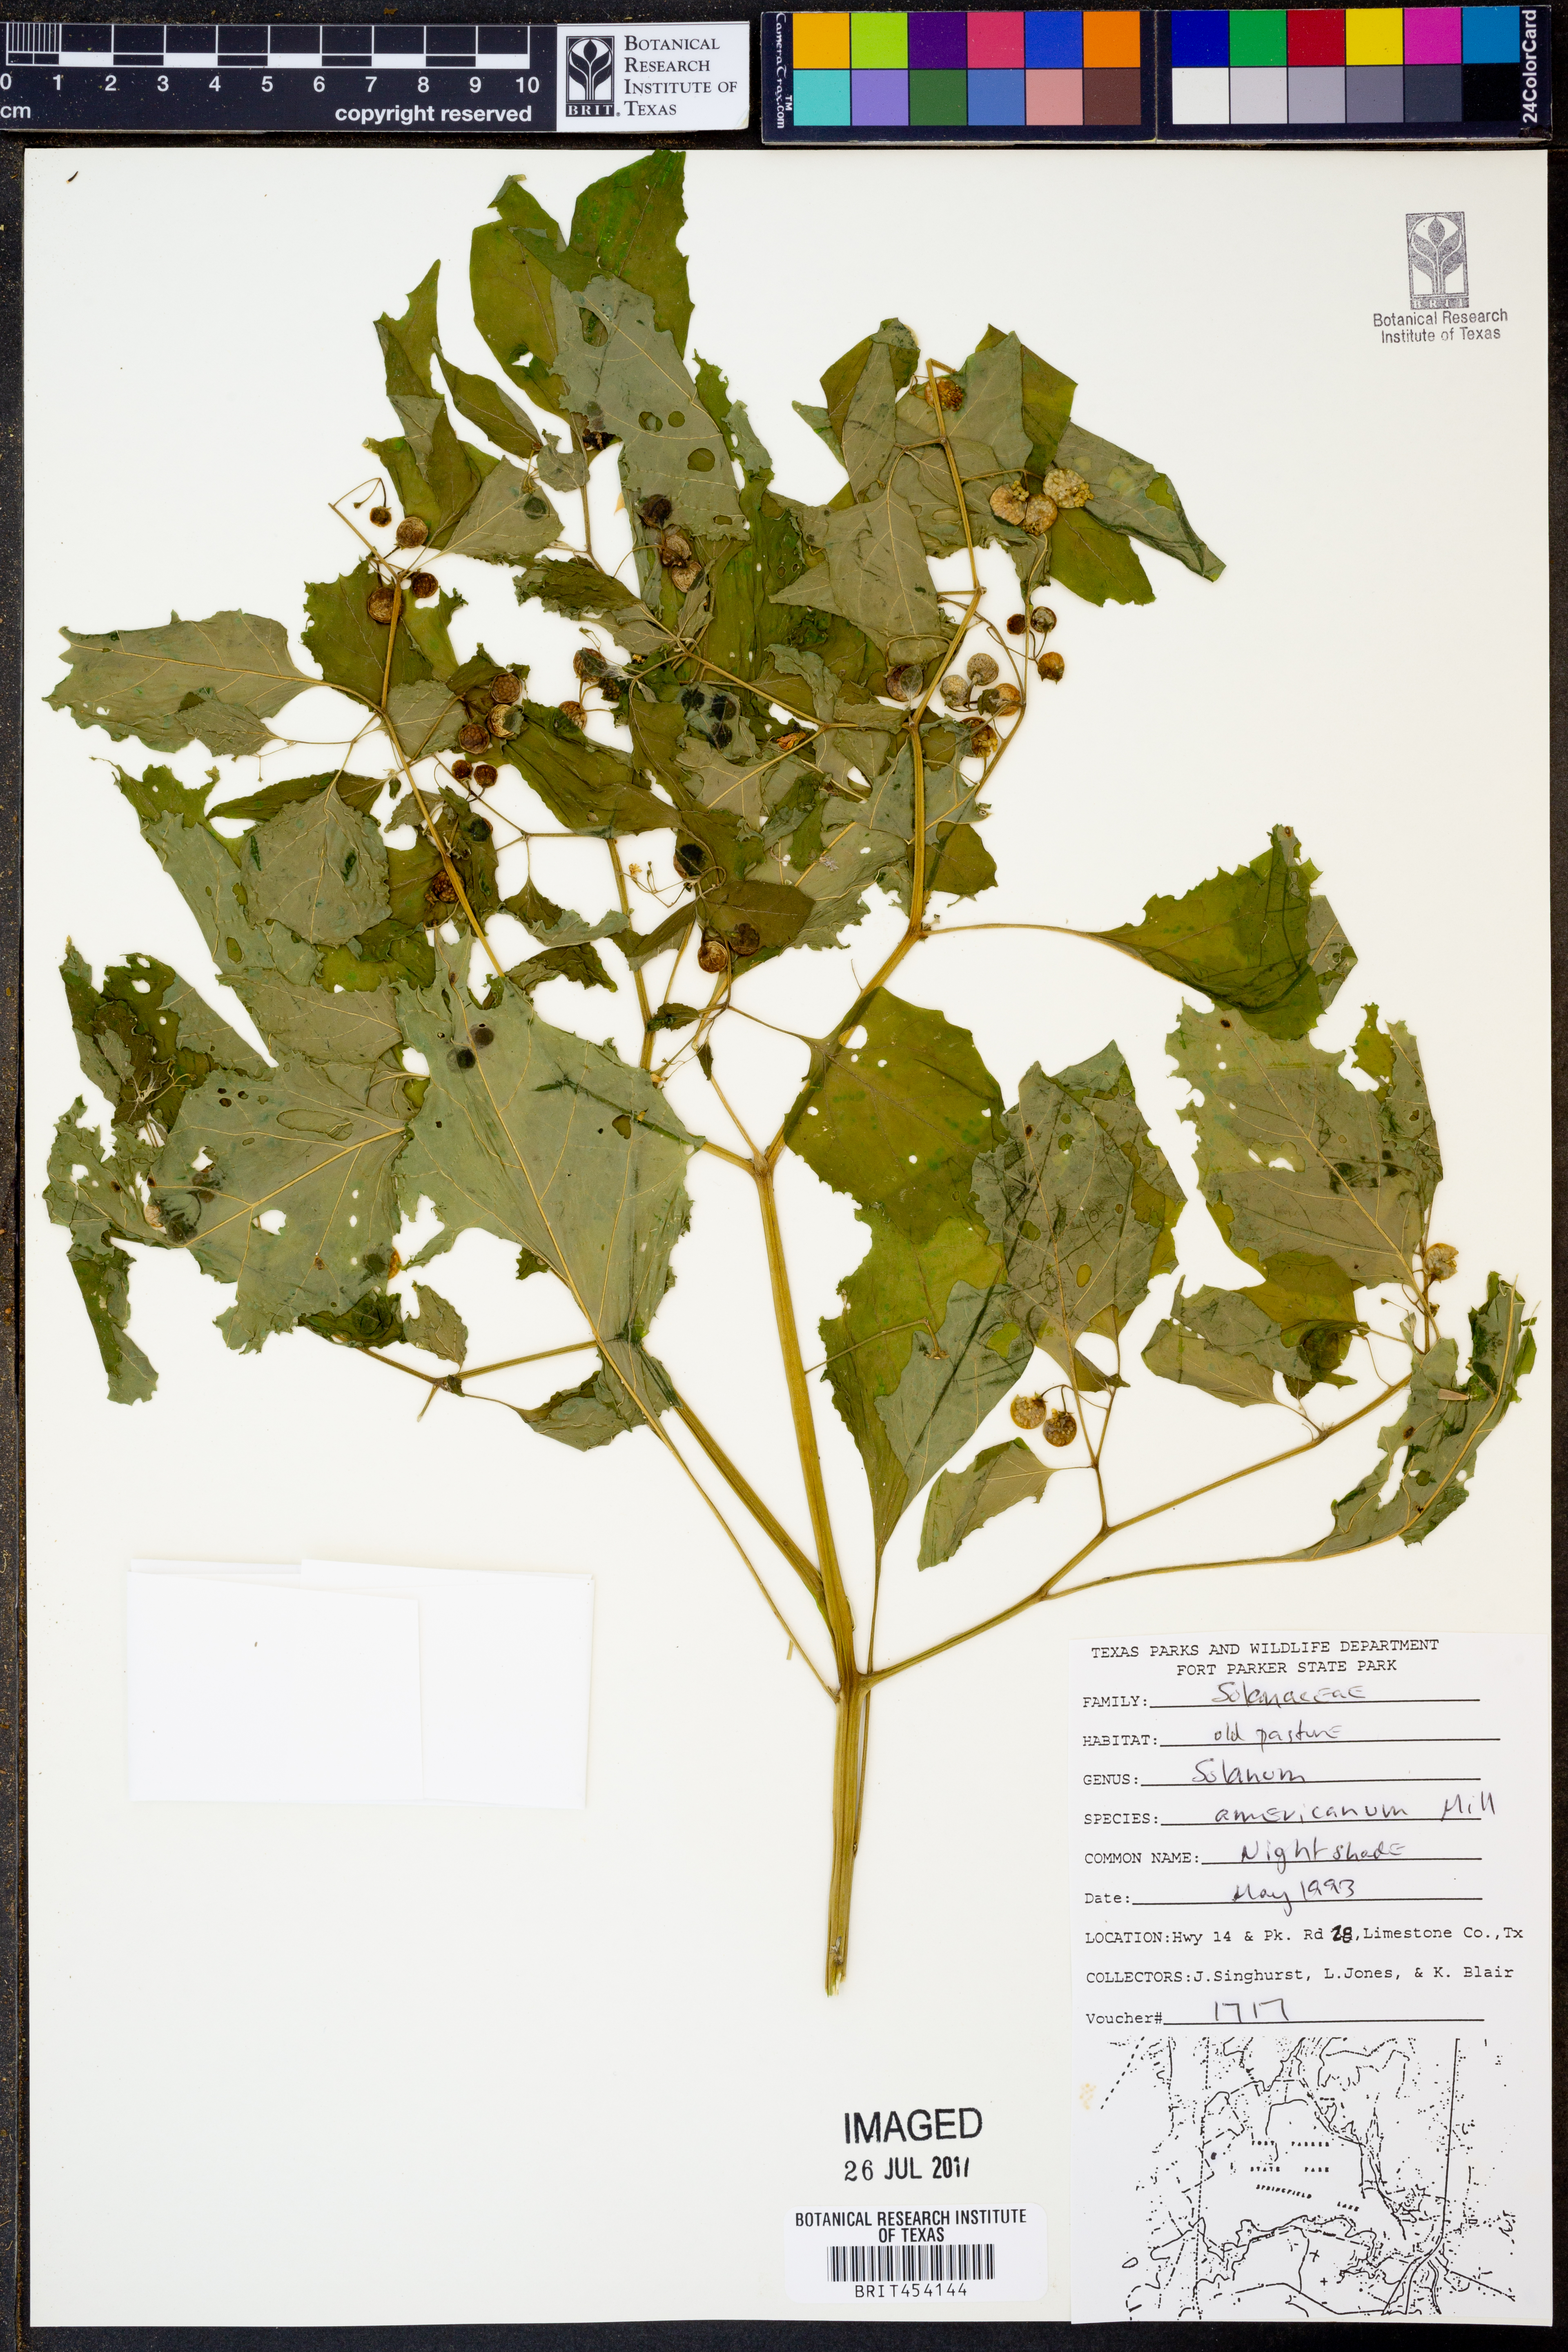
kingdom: Plantae
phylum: Tracheophyta
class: Magnoliopsida
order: Solanales
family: Solanaceae
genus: Solanum
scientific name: Solanum americanum
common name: American black nightshade
